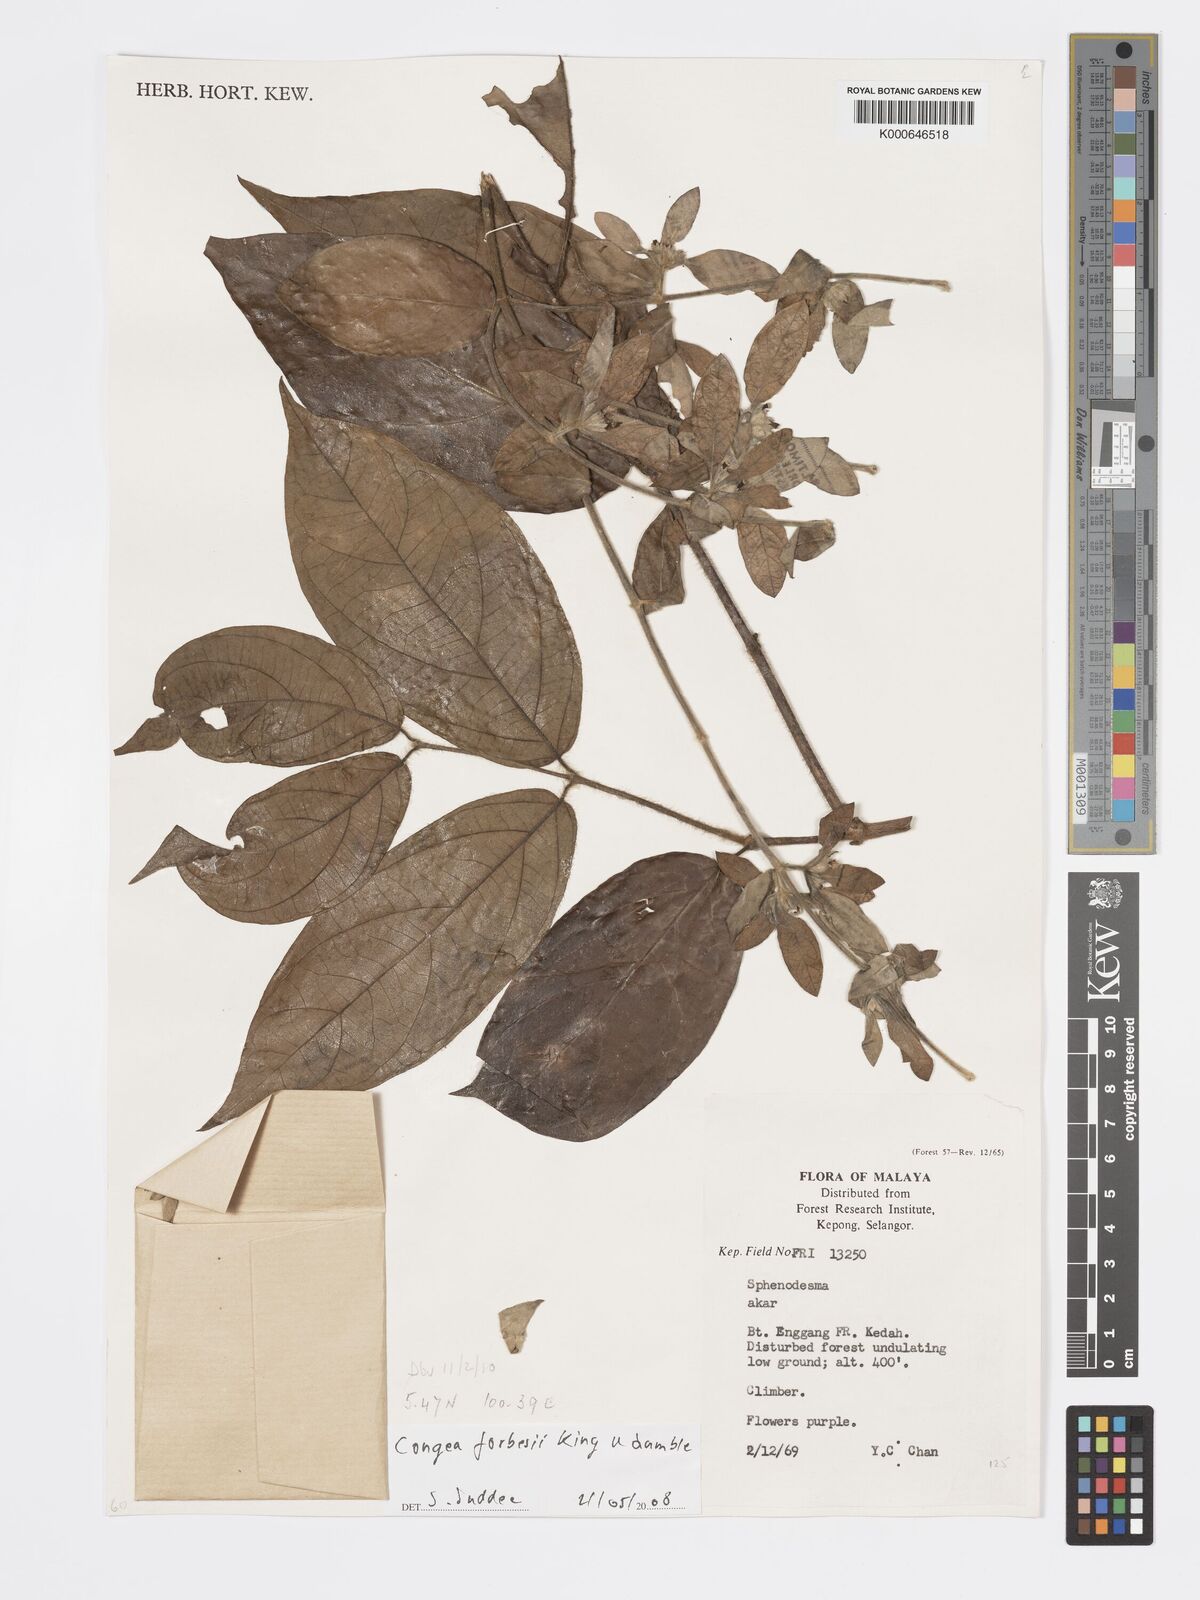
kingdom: Plantae
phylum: Tracheophyta
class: Magnoliopsida
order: Lamiales
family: Lamiaceae
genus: Congea
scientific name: Congea
